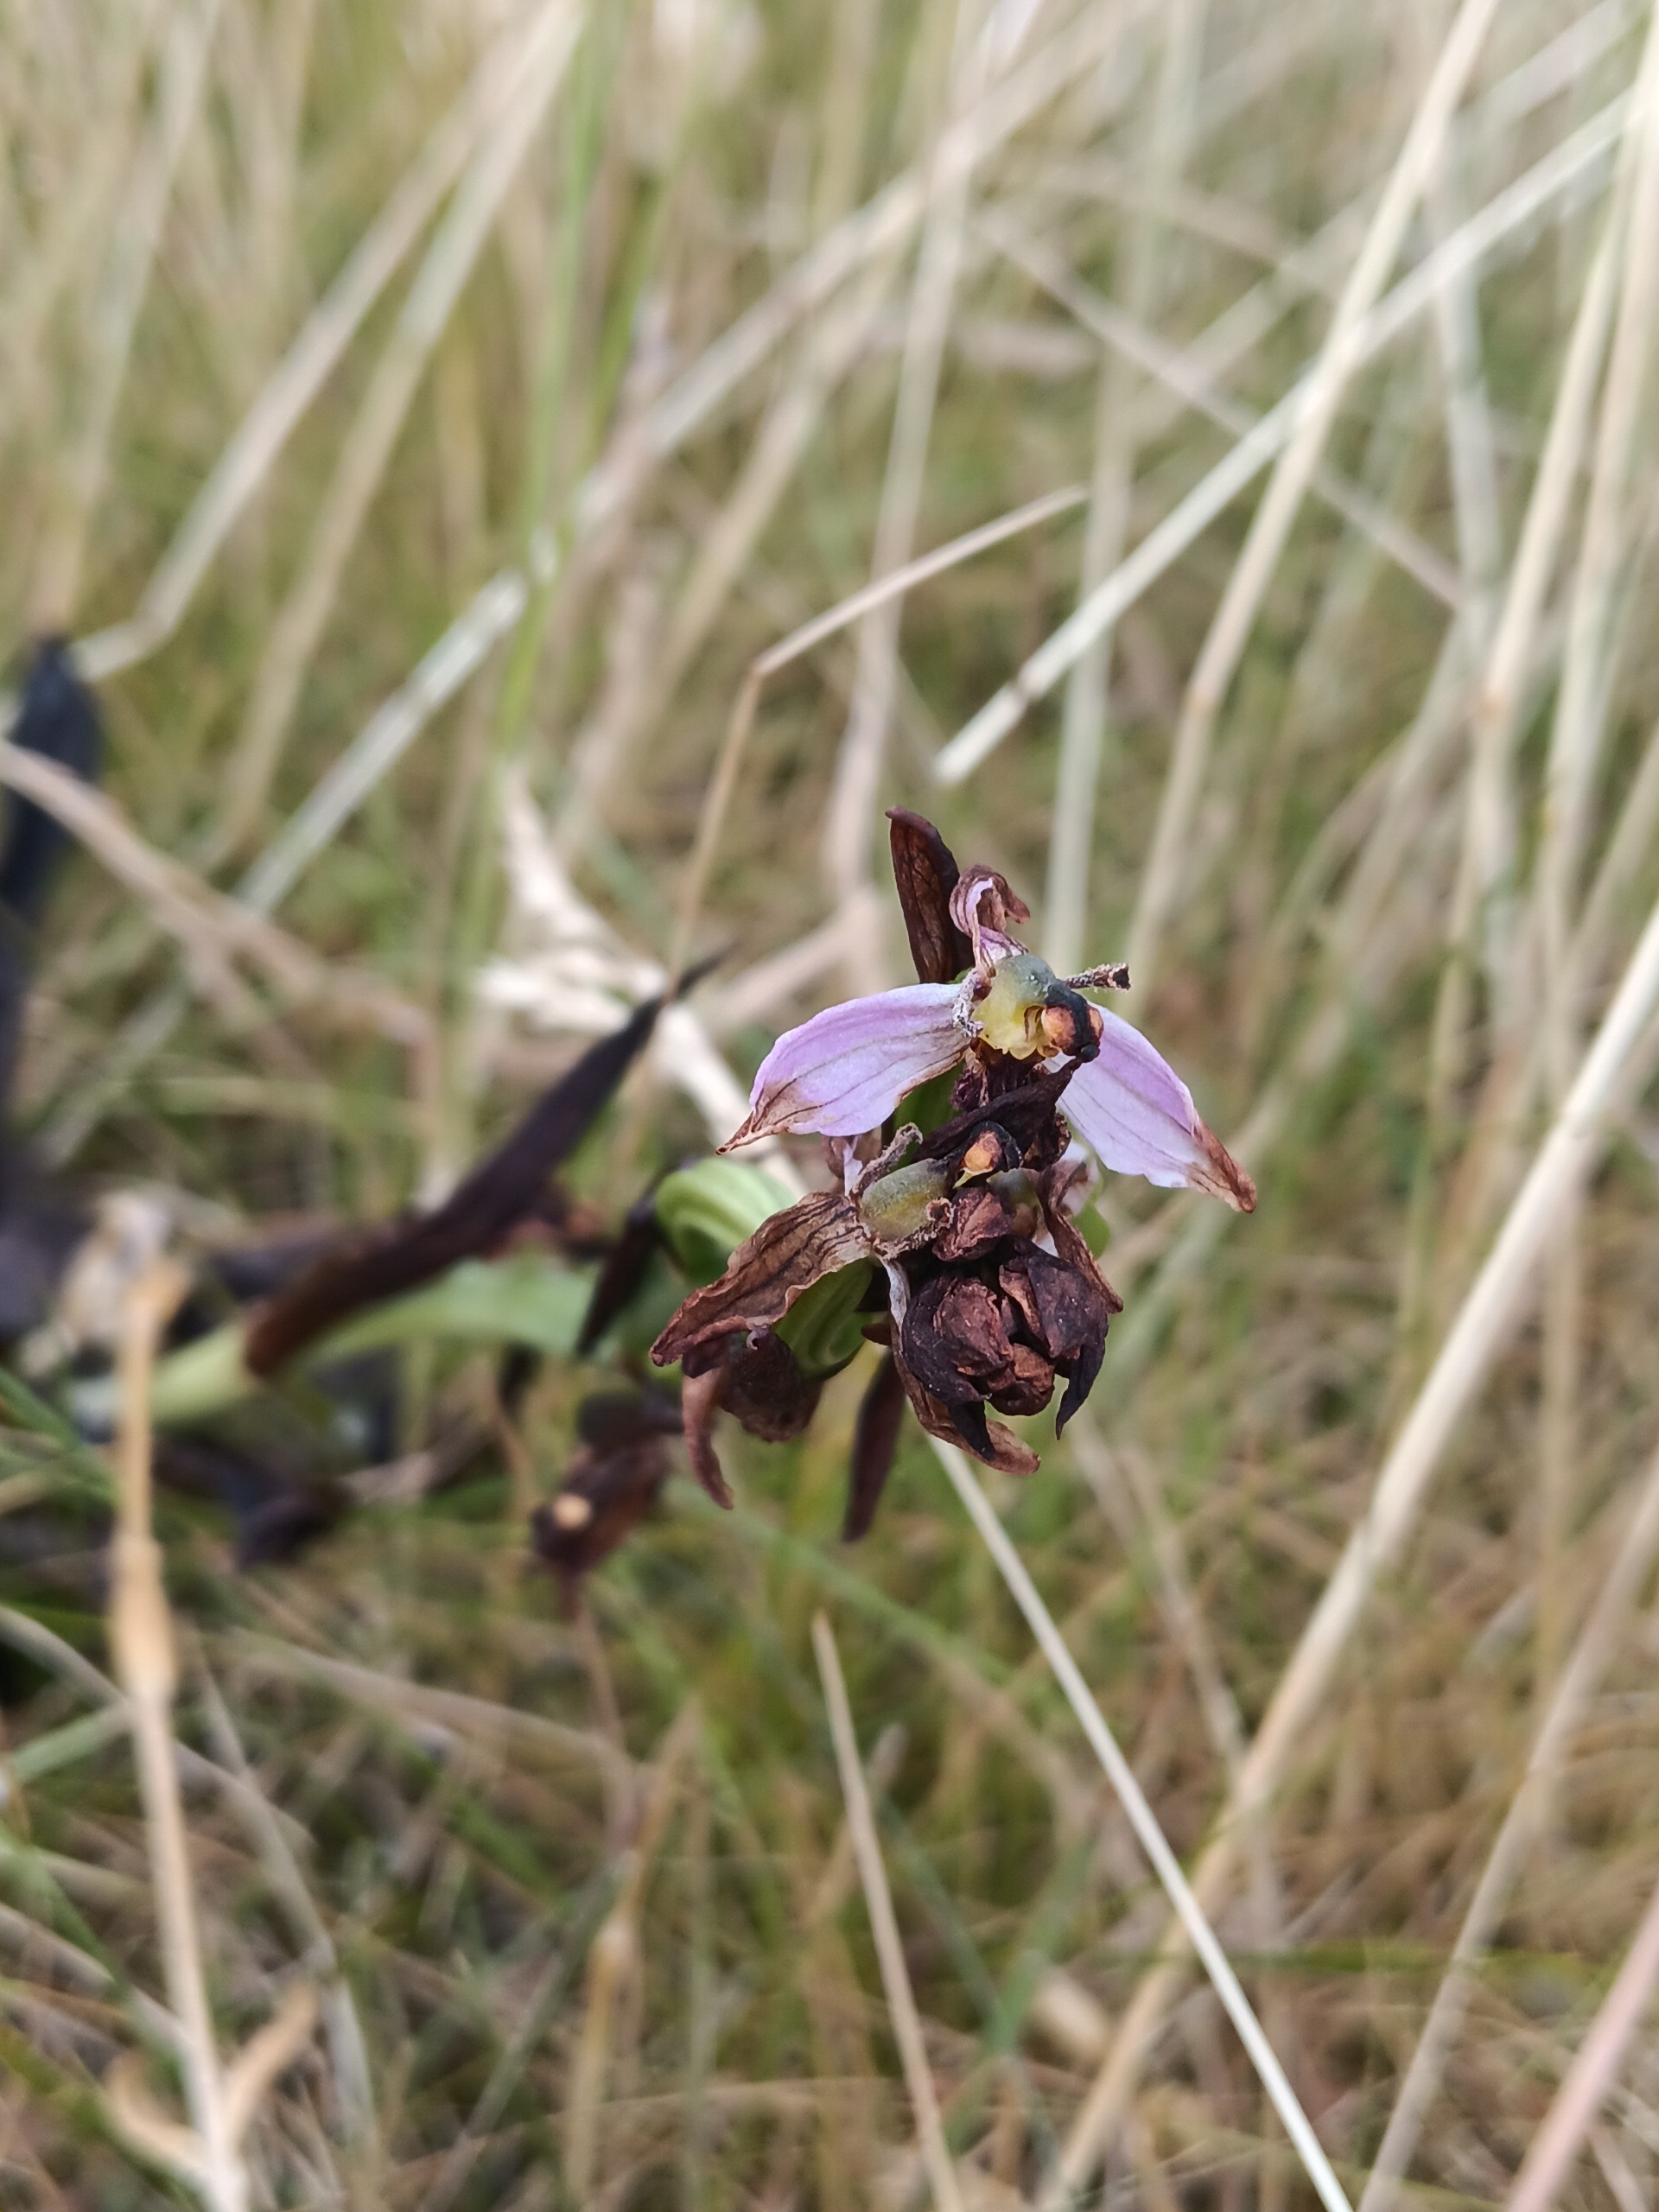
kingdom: Plantae
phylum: Tracheophyta
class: Liliopsida
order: Asparagales
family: Orchidaceae
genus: Ophrys
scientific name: Ophrys apifera
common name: Biblomst
